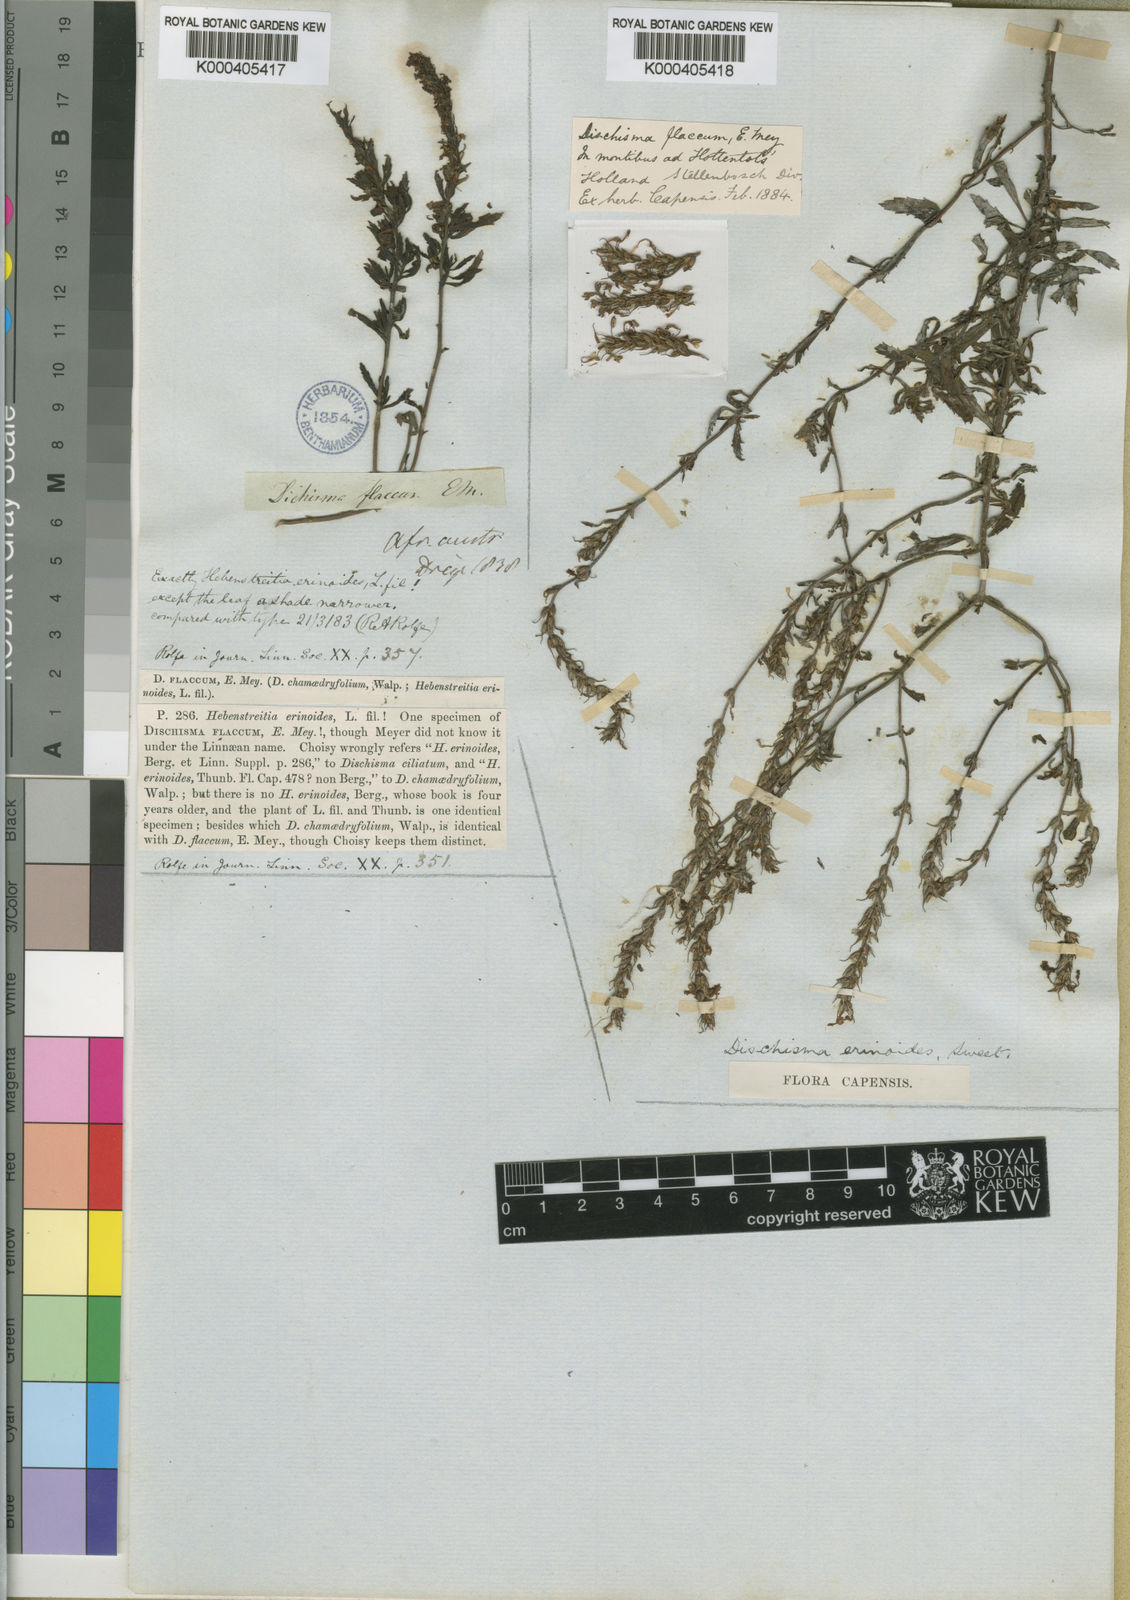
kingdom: Plantae
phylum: Tracheophyta
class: Magnoliopsida
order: Lamiales
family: Scrophulariaceae
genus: Dischisma
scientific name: Dischisma ciliatum
